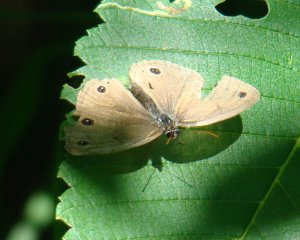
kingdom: Animalia
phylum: Arthropoda
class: Insecta
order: Lepidoptera
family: Nymphalidae
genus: Euptychia
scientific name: Euptychia cymela
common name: Little Wood Satyr
